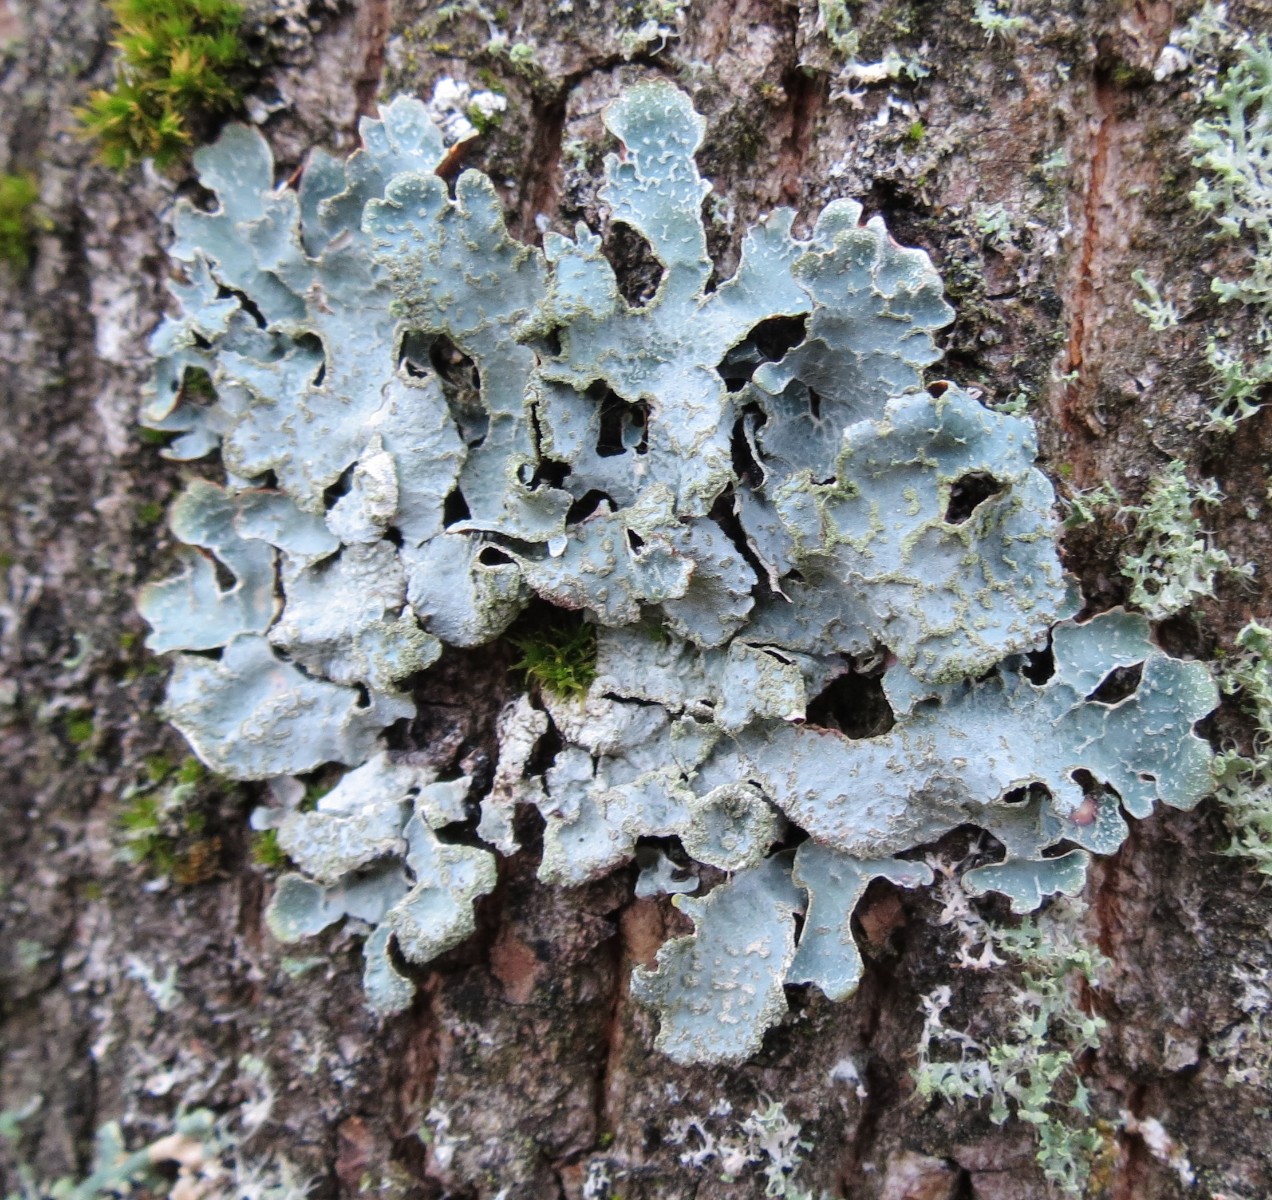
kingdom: Fungi
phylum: Ascomycota
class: Lecanoromycetes
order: Lecanorales
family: Parmeliaceae
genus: Parmelia
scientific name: Parmelia sulcata
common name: rynket skållav
